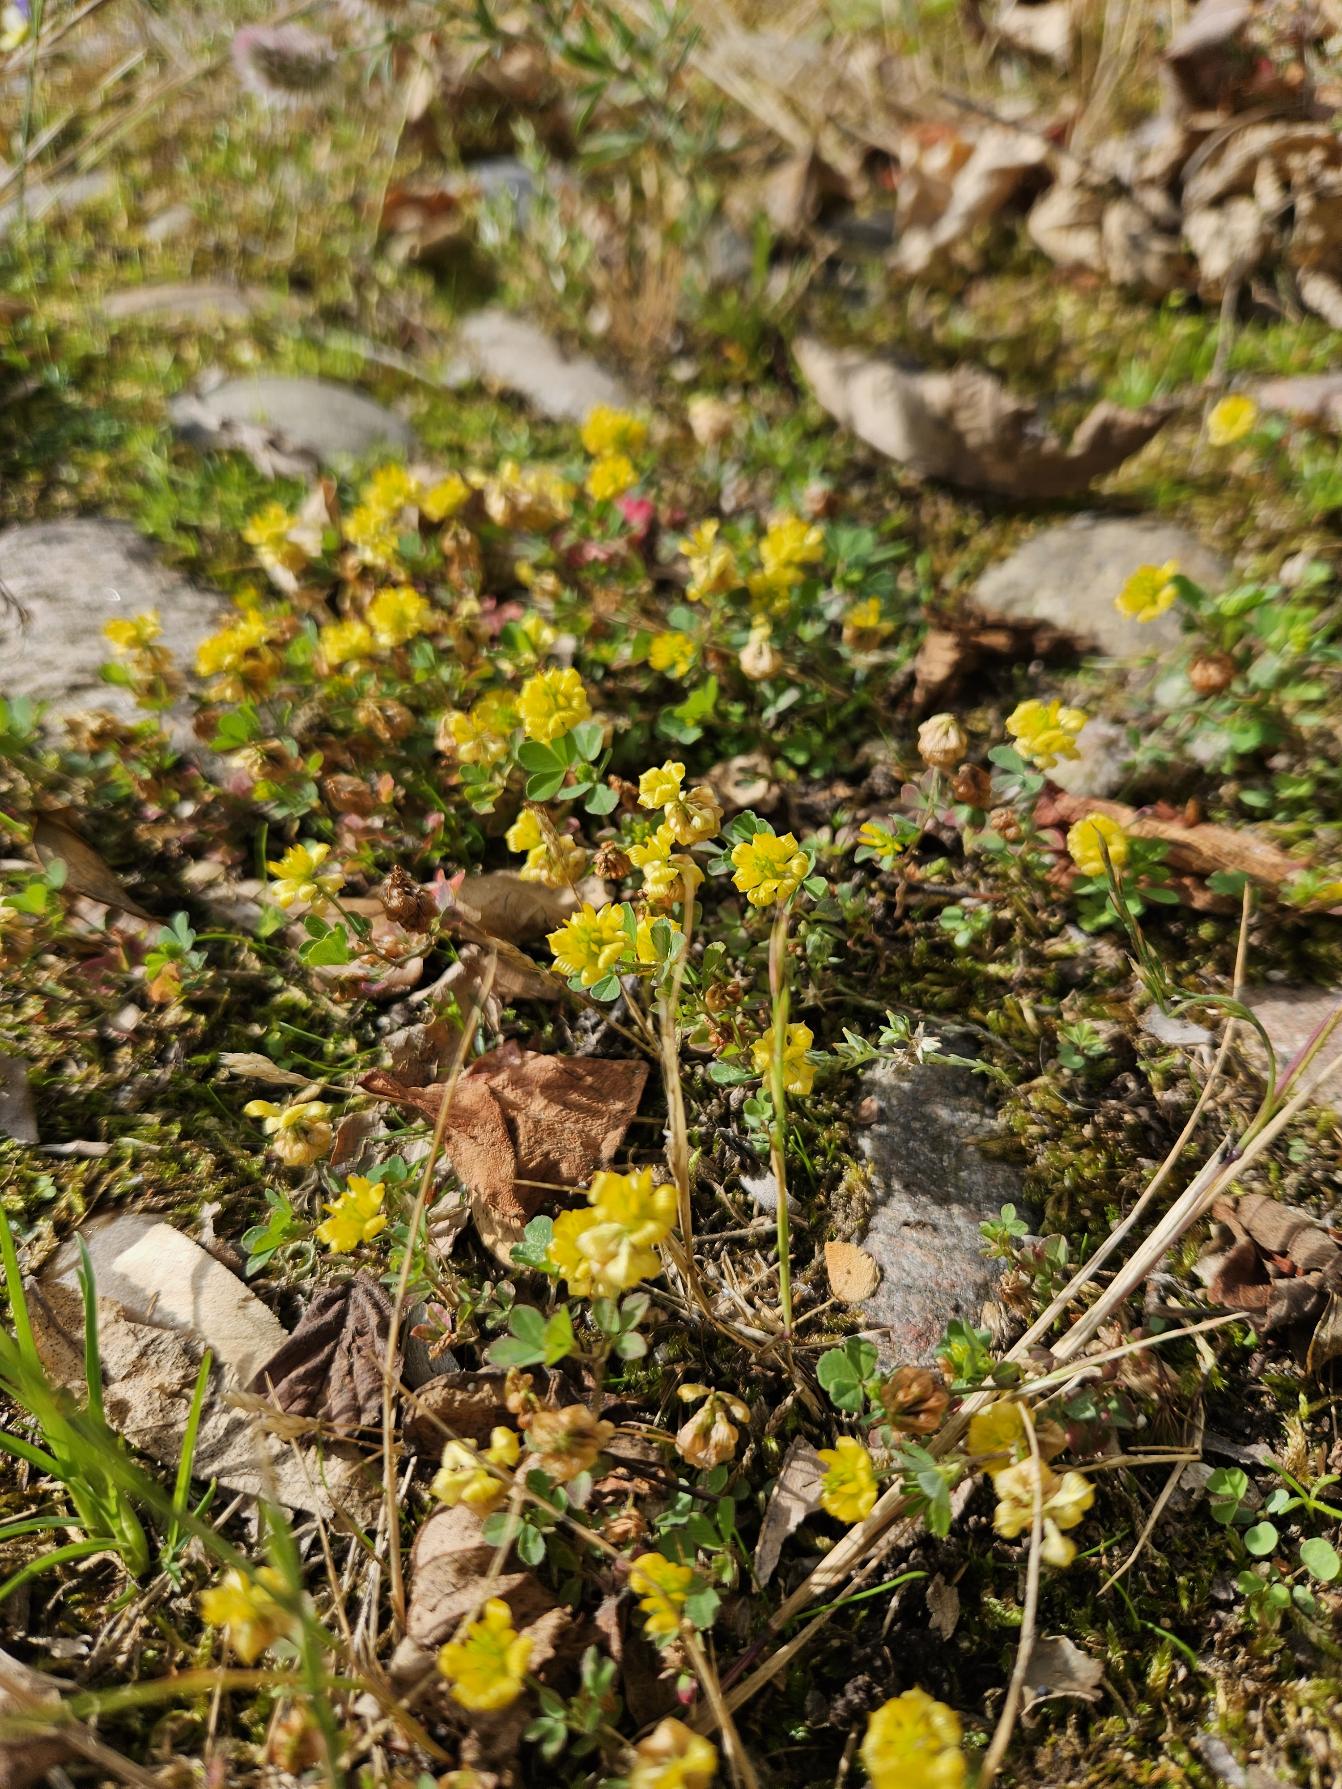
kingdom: Plantae
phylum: Tracheophyta
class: Magnoliopsida
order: Fabales
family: Fabaceae
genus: Trifolium
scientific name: Trifolium campestre
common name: Gul kløver
